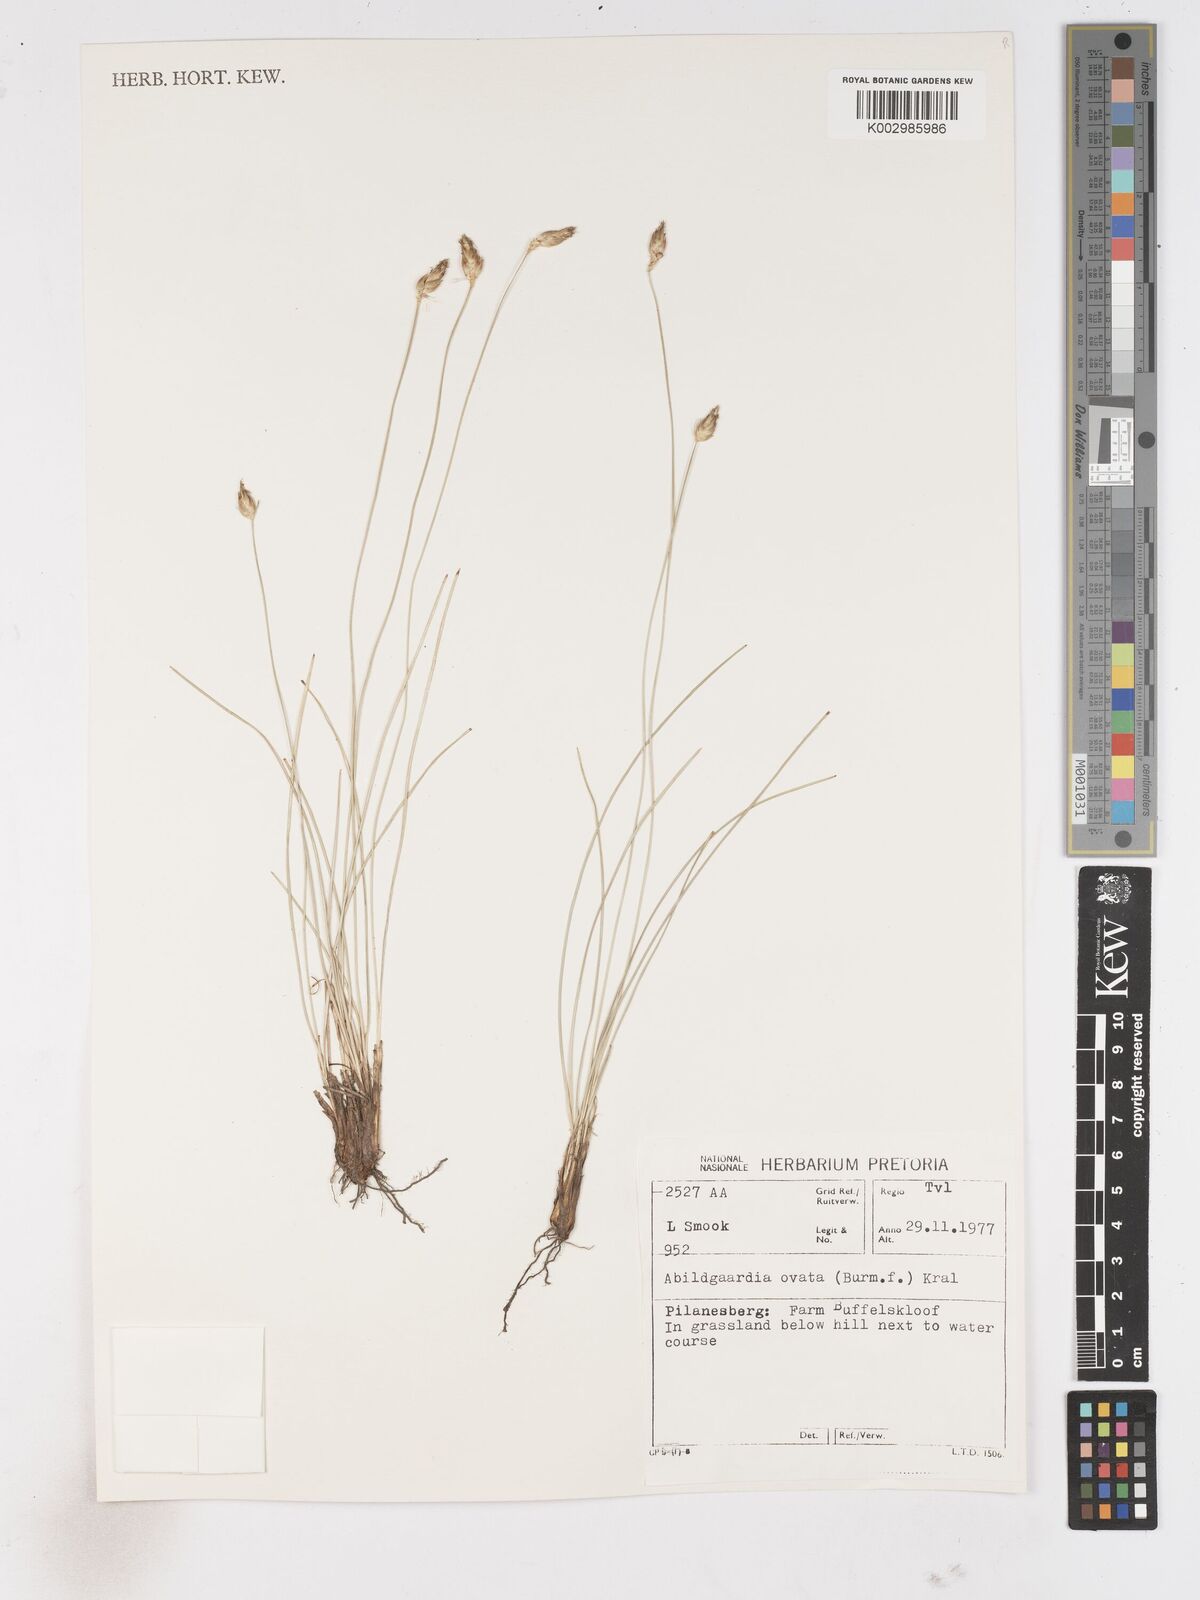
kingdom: Plantae
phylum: Tracheophyta
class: Liliopsida
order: Poales
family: Cyperaceae
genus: Abildgaardia
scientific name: Abildgaardia ovata
